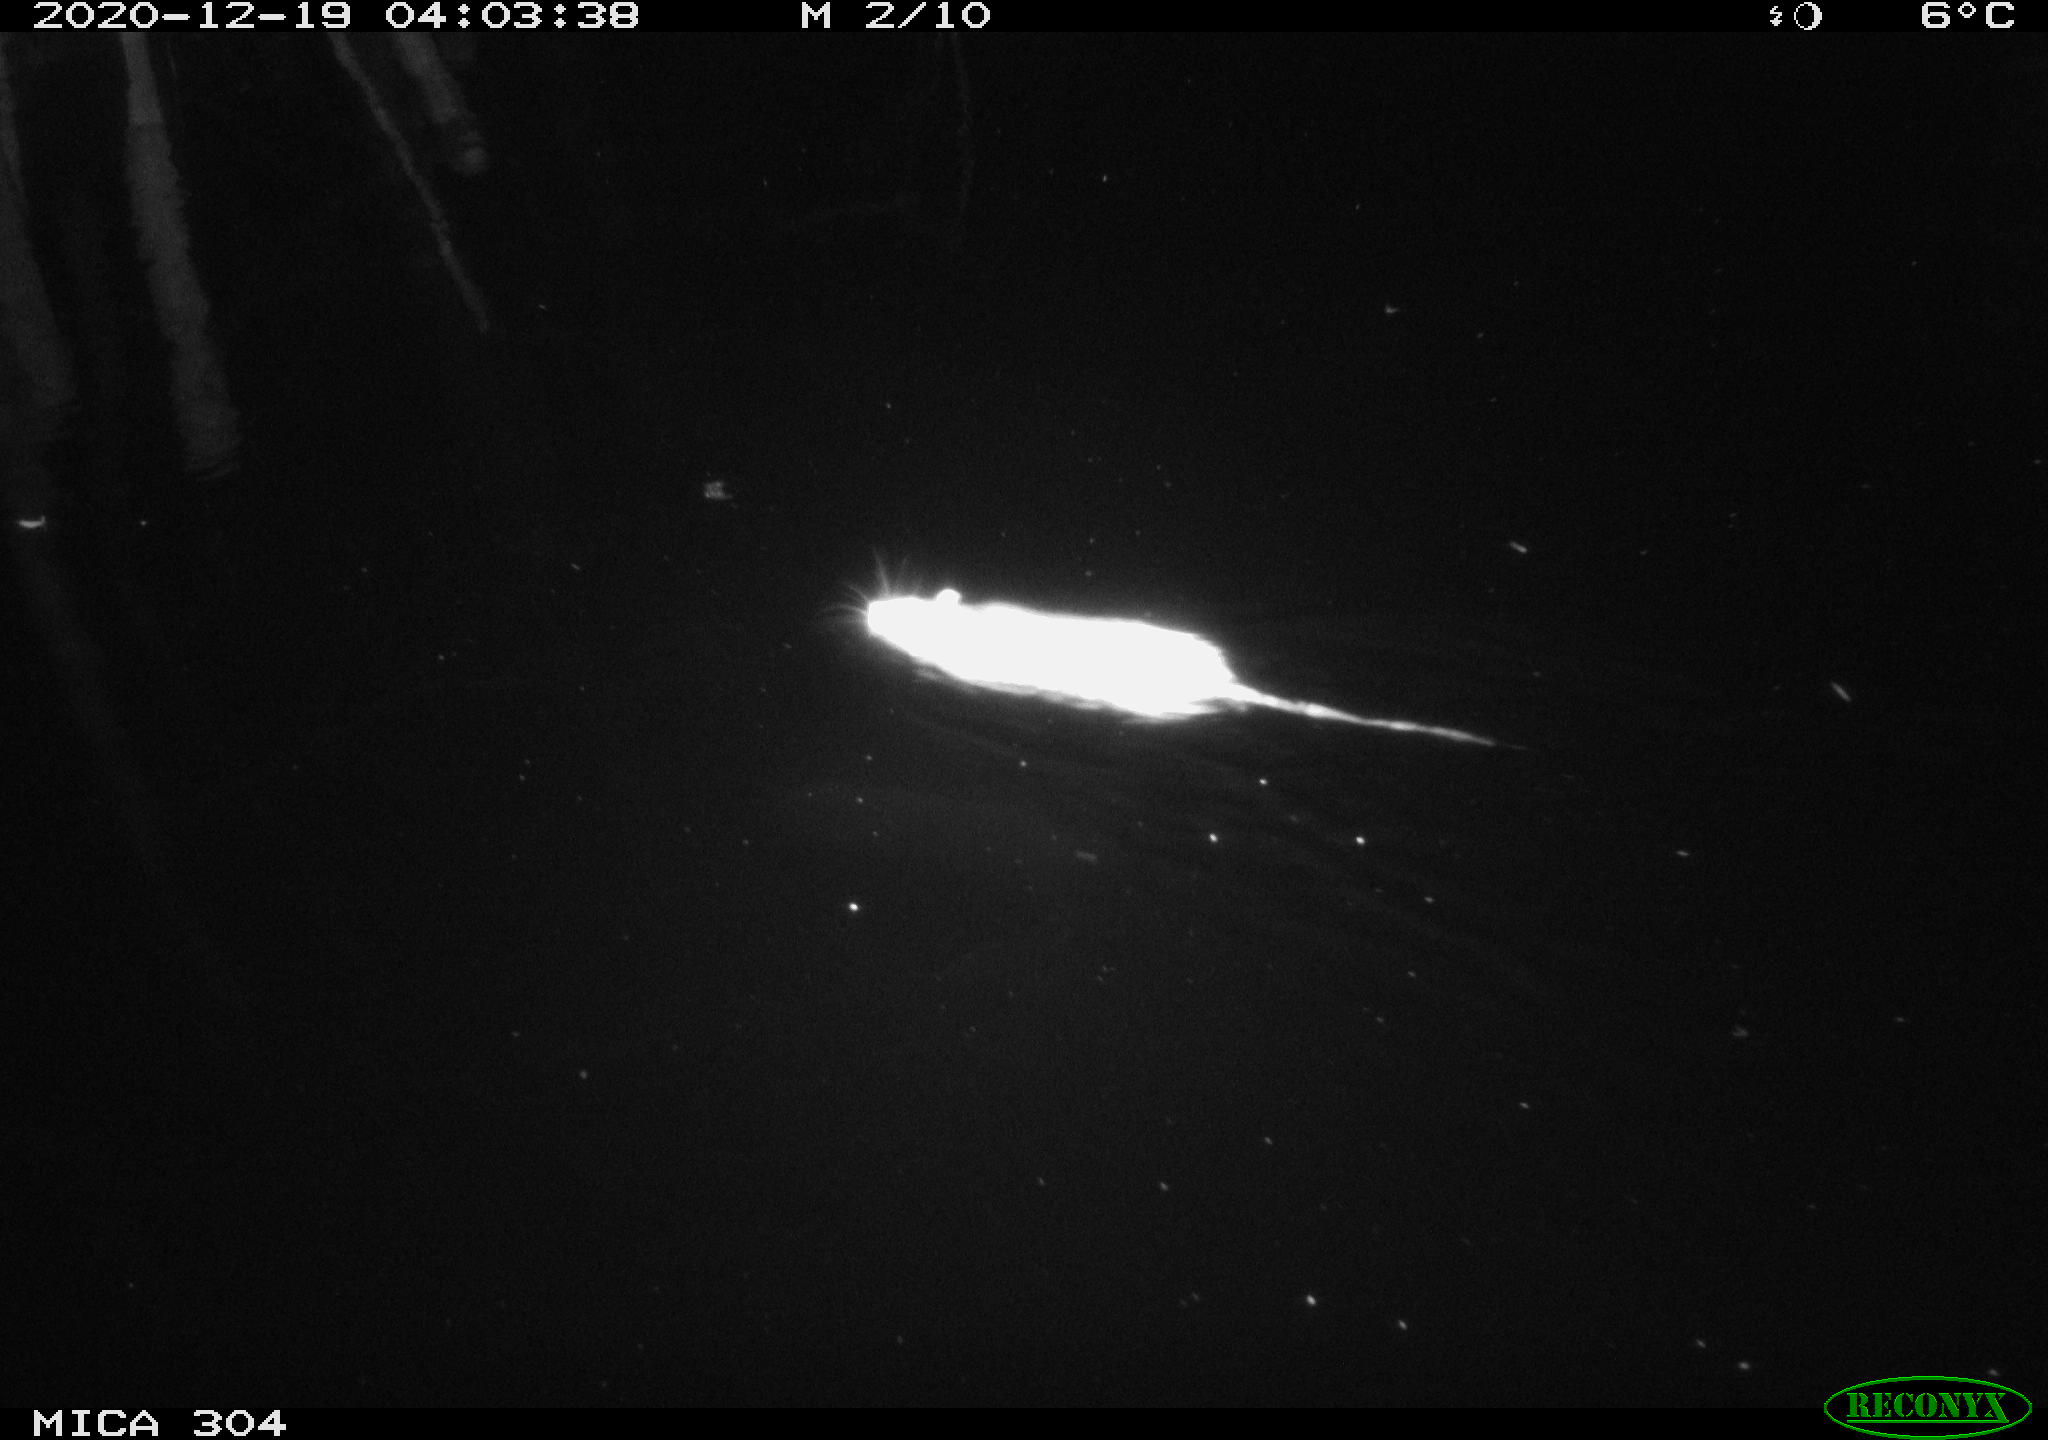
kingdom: Animalia
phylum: Chordata
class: Mammalia
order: Rodentia
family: Muridae
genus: Rattus
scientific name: Rattus norvegicus
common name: Brown rat
